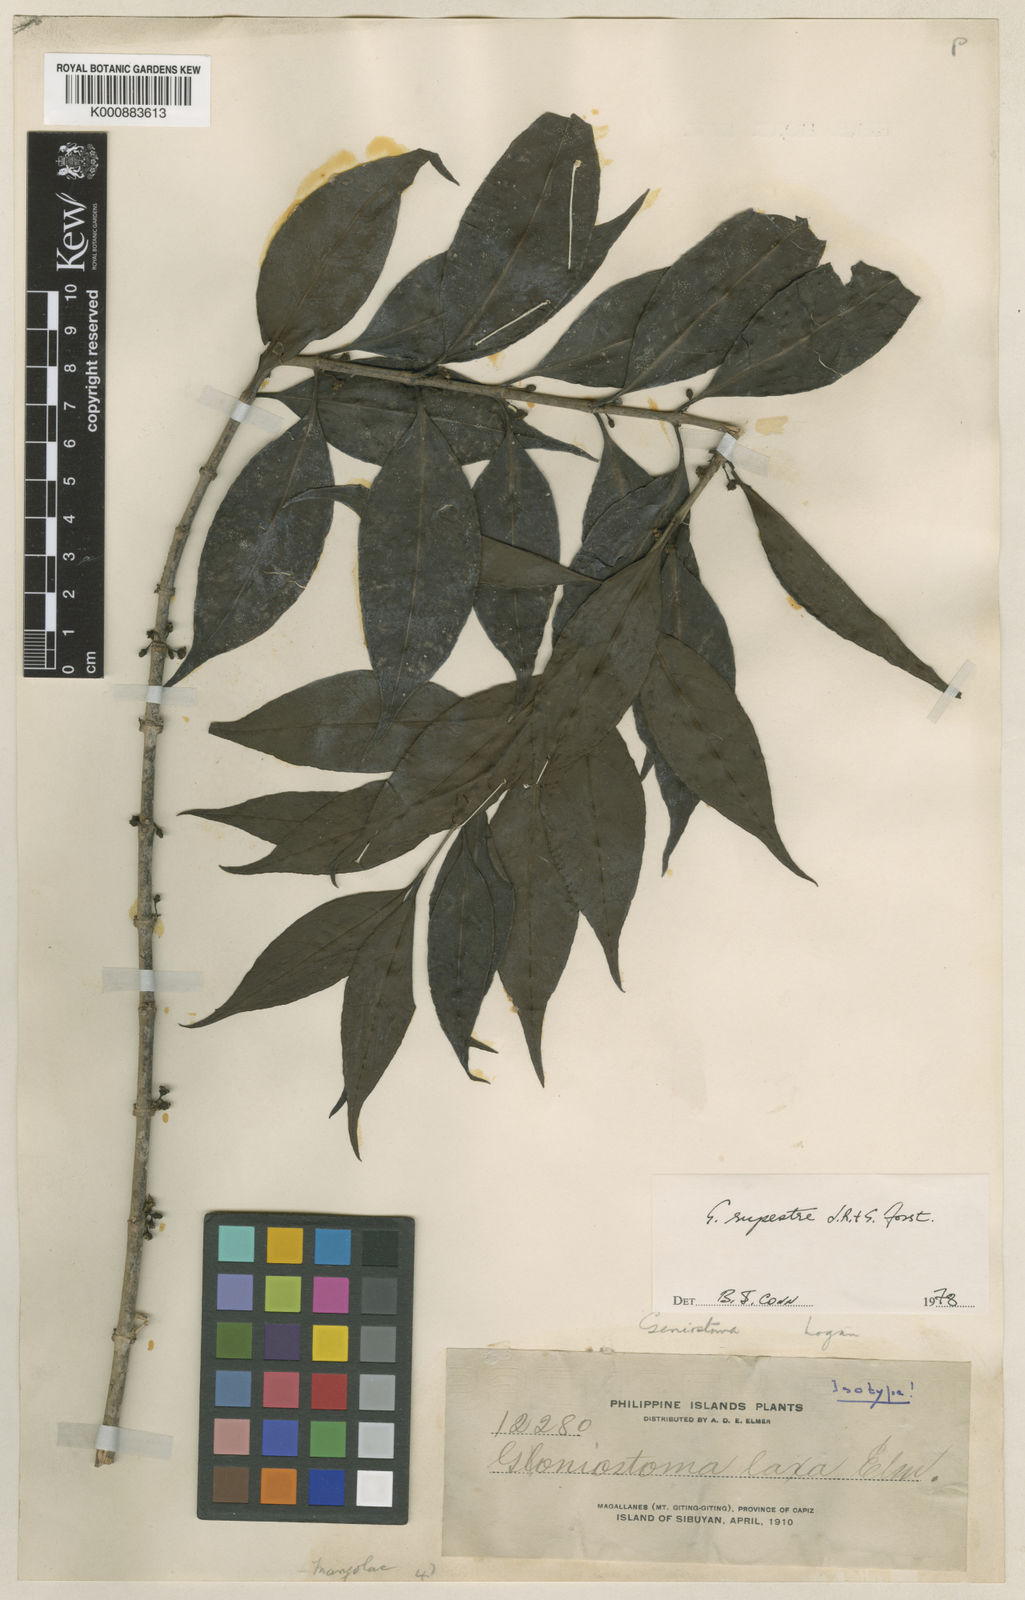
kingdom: Plantae
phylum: Tracheophyta
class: Magnoliopsida
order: Gentianales
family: Loganiaceae
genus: Geniostoma
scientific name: Geniostoma rupestre
